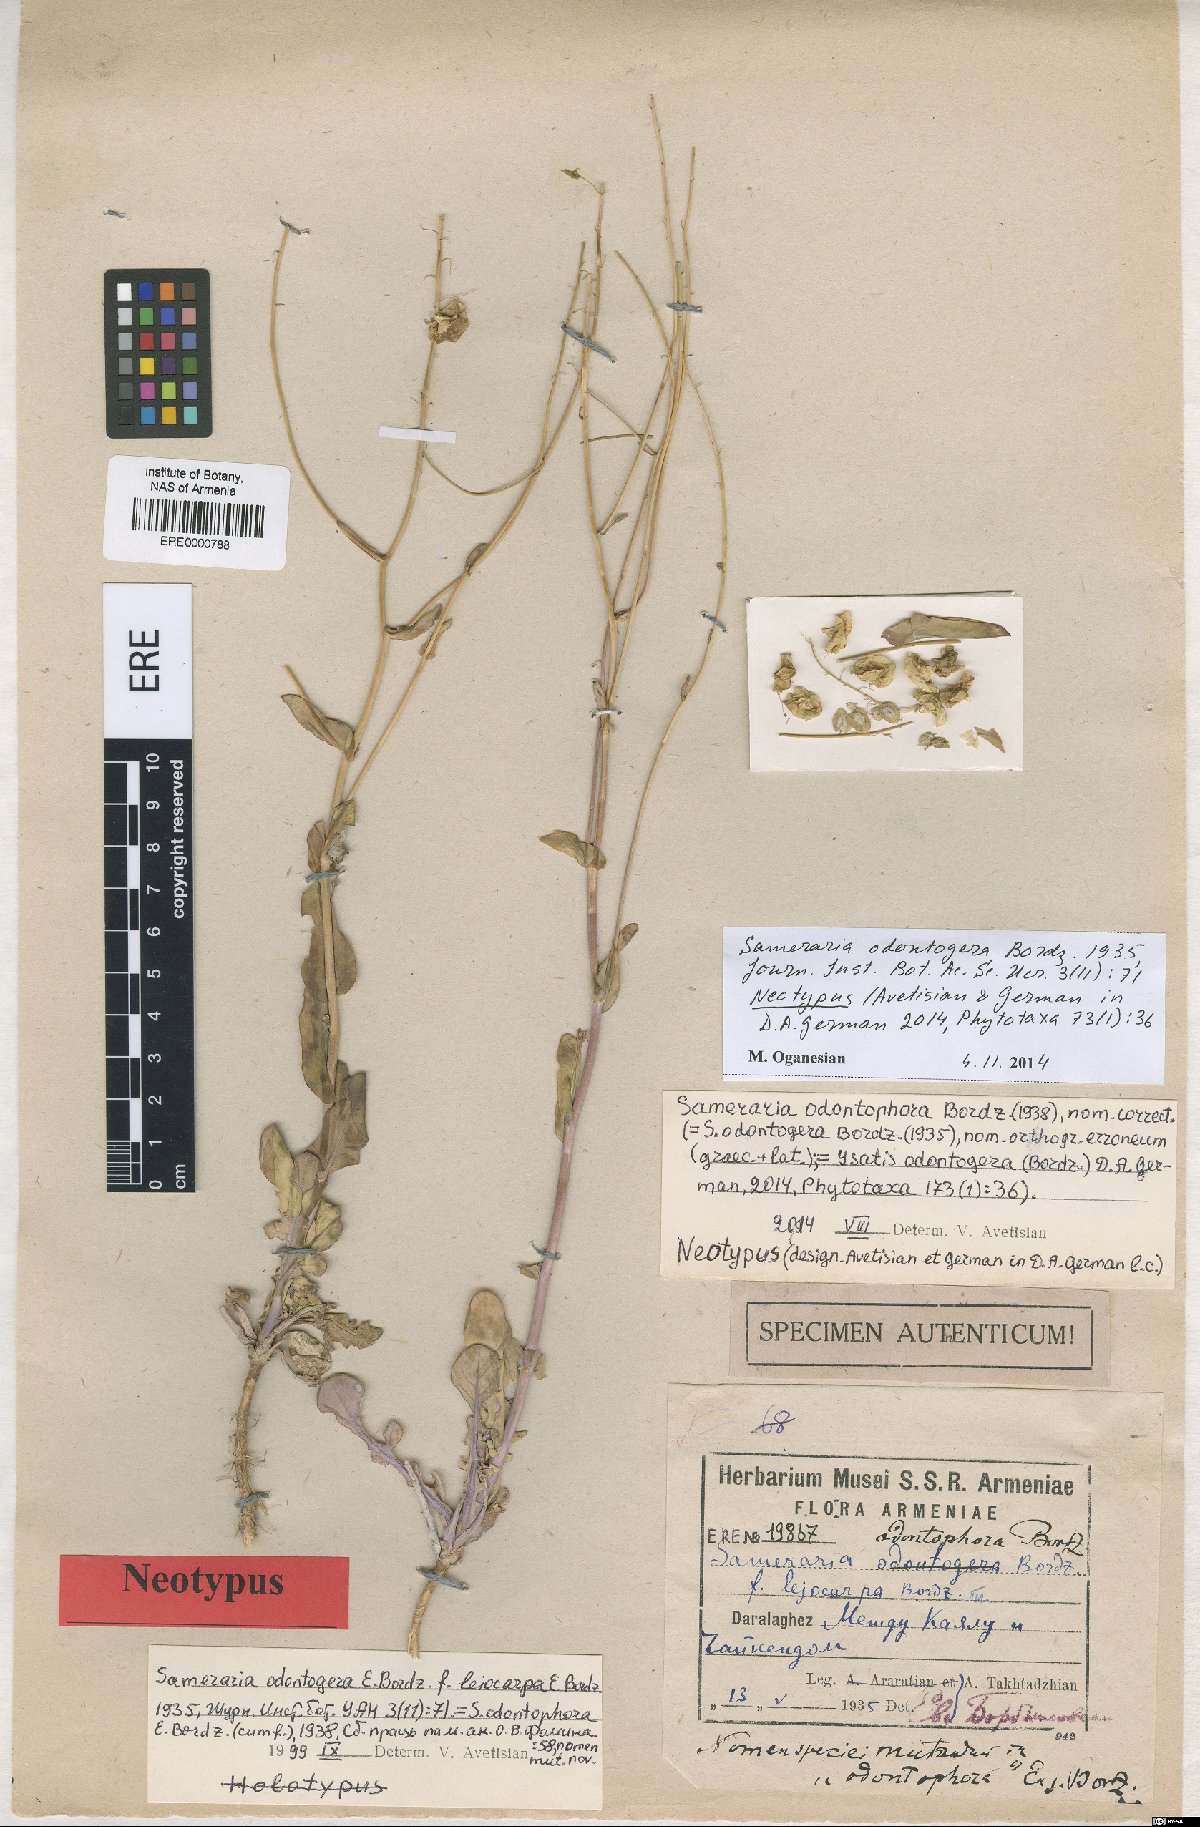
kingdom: Plantae
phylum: Tracheophyta
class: Magnoliopsida
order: Brassicales
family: Brassicaceae
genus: Isatis
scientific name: Isatis odontogera
